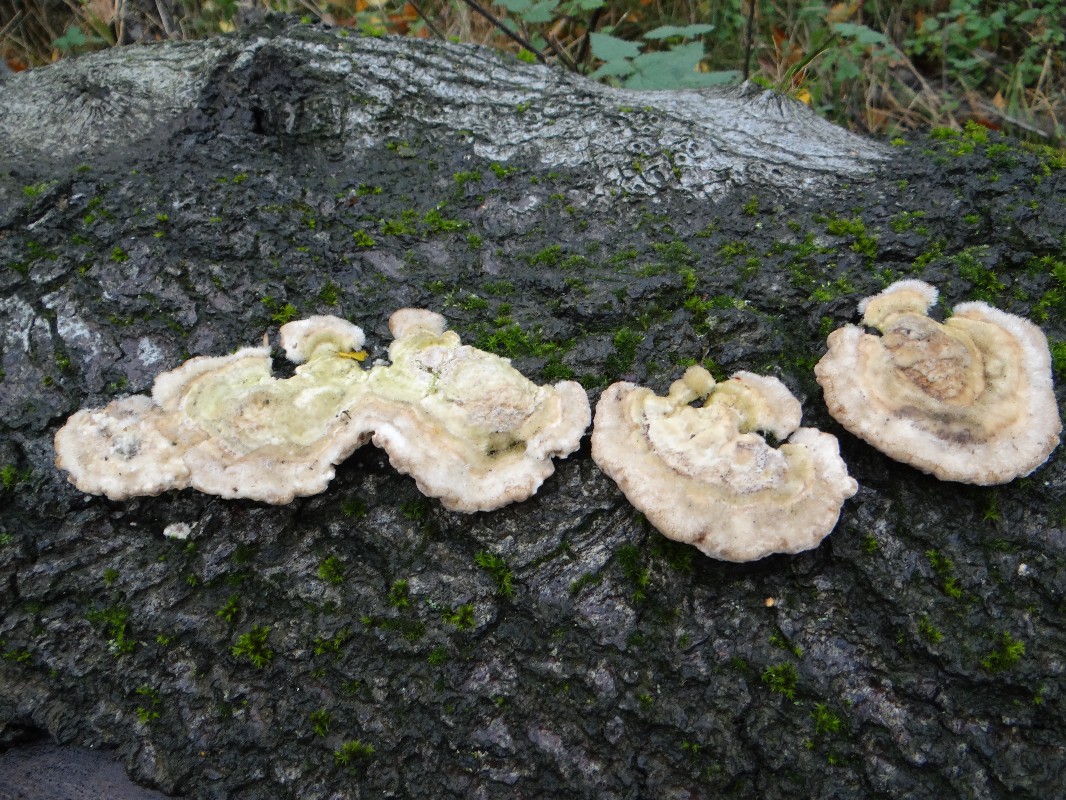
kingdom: Fungi
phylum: Basidiomycota
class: Agaricomycetes
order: Polyporales
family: Polyporaceae
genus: Trametes
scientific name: Trametes hirsuta
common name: håret læderporesvamp
